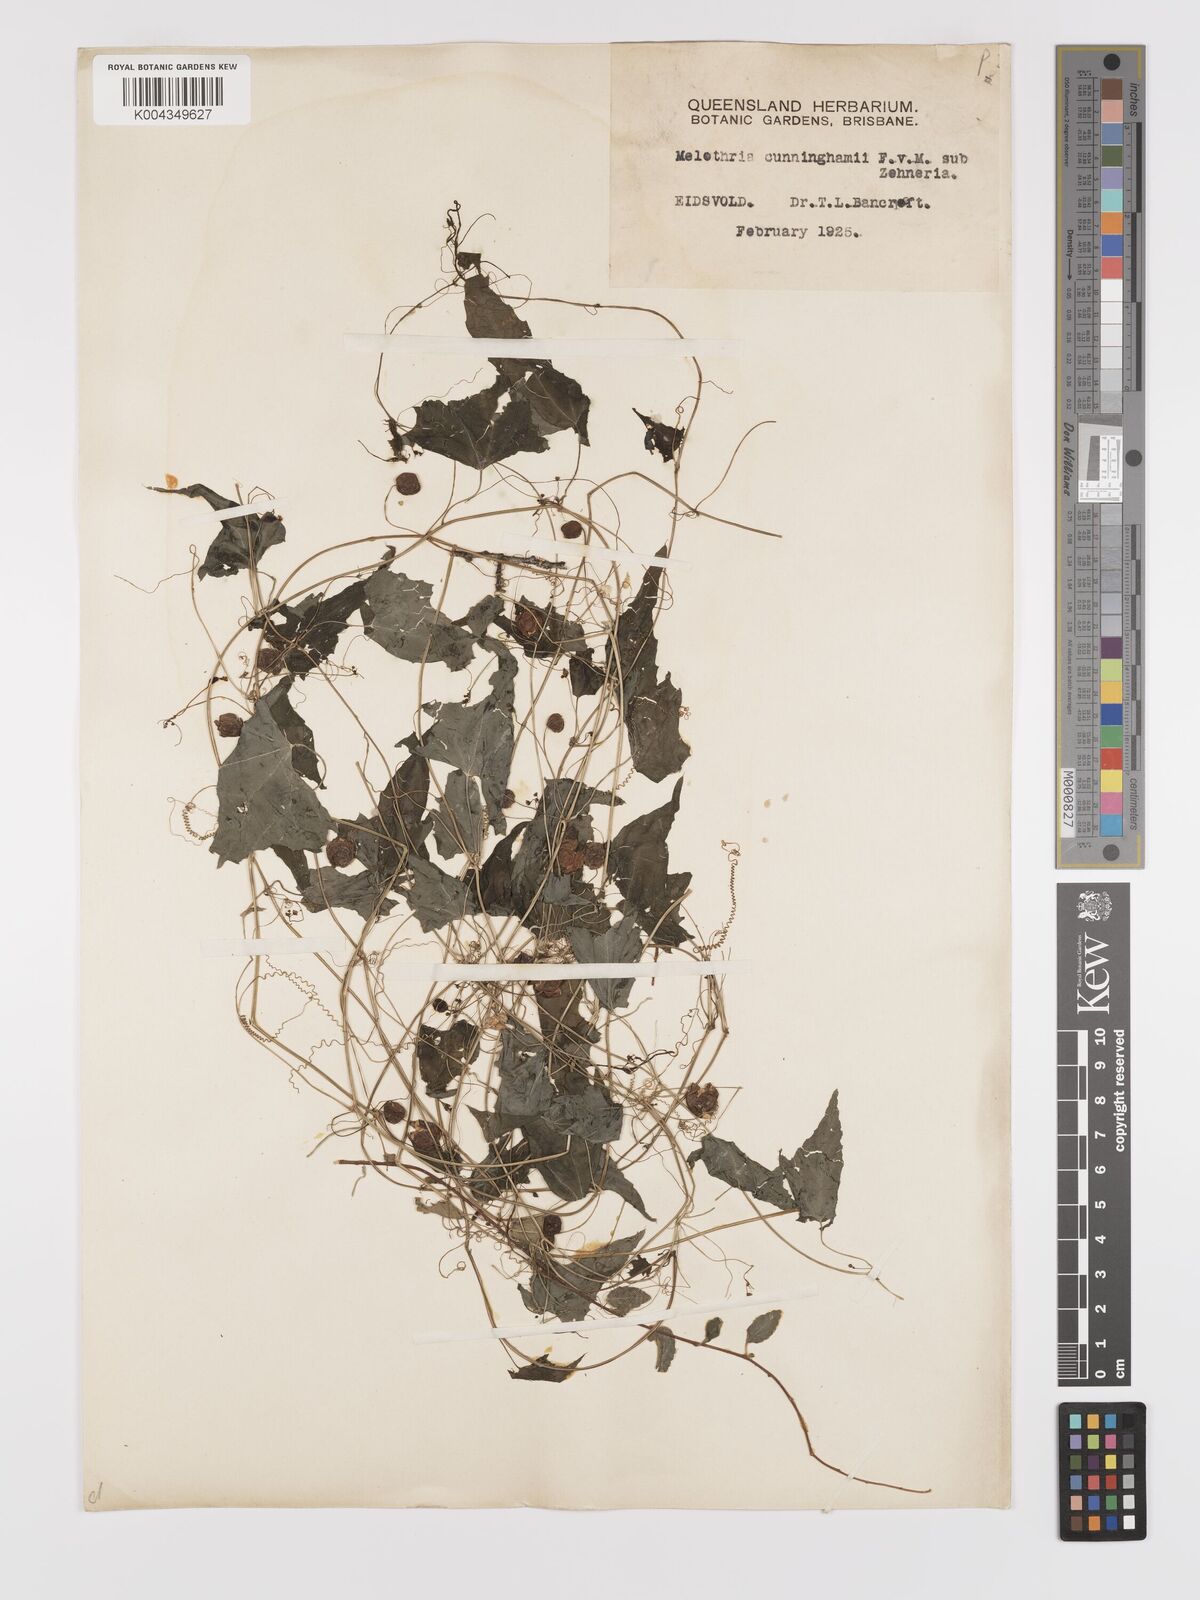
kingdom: Plantae
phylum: Tracheophyta
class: Magnoliopsida
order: Cucurbitales
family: Cucurbitaceae
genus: Zehneria
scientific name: Zehneria cunninghamii
